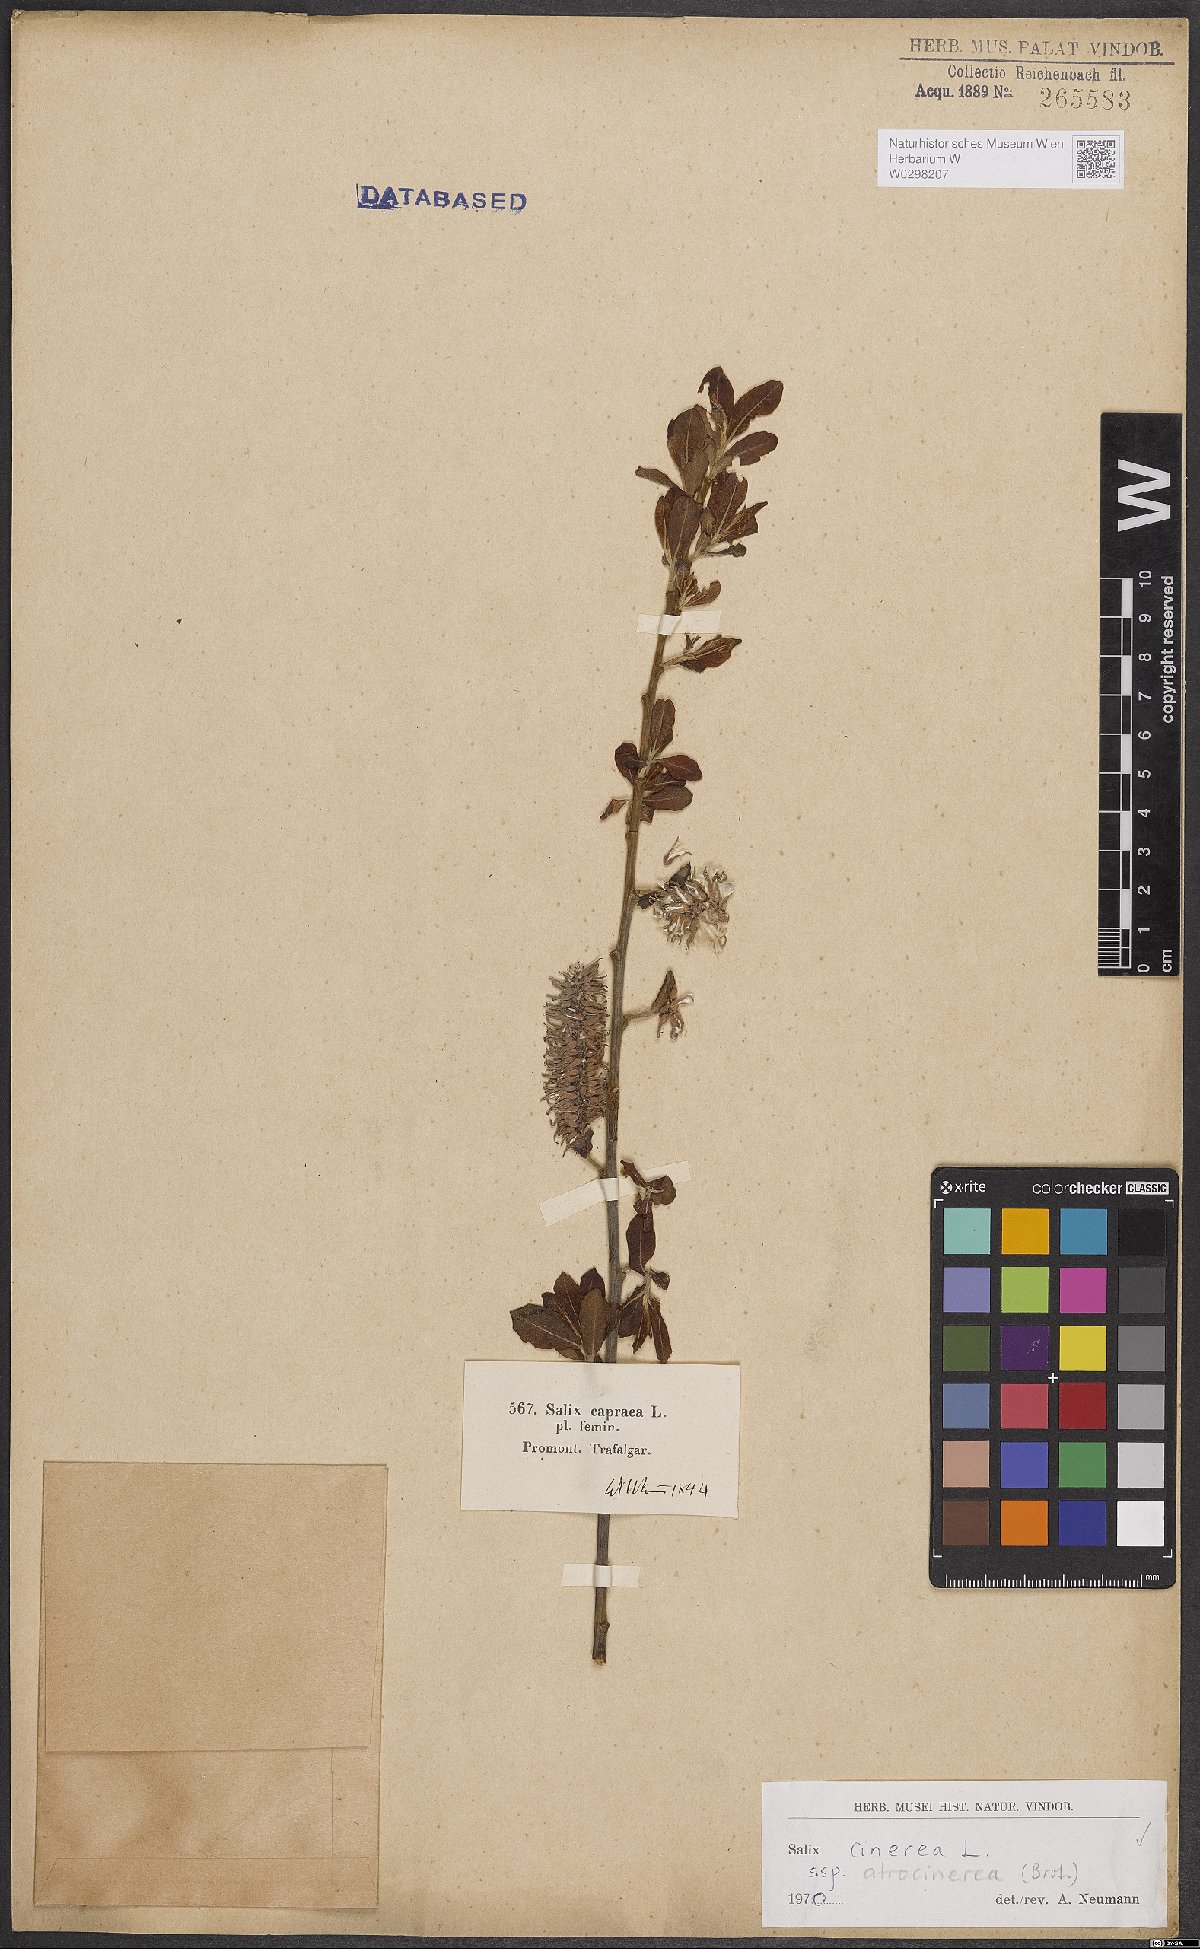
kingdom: Plantae
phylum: Tracheophyta
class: Magnoliopsida
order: Malpighiales
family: Salicaceae
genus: Salix
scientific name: Salix atrocinerea
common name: Rusty willow
